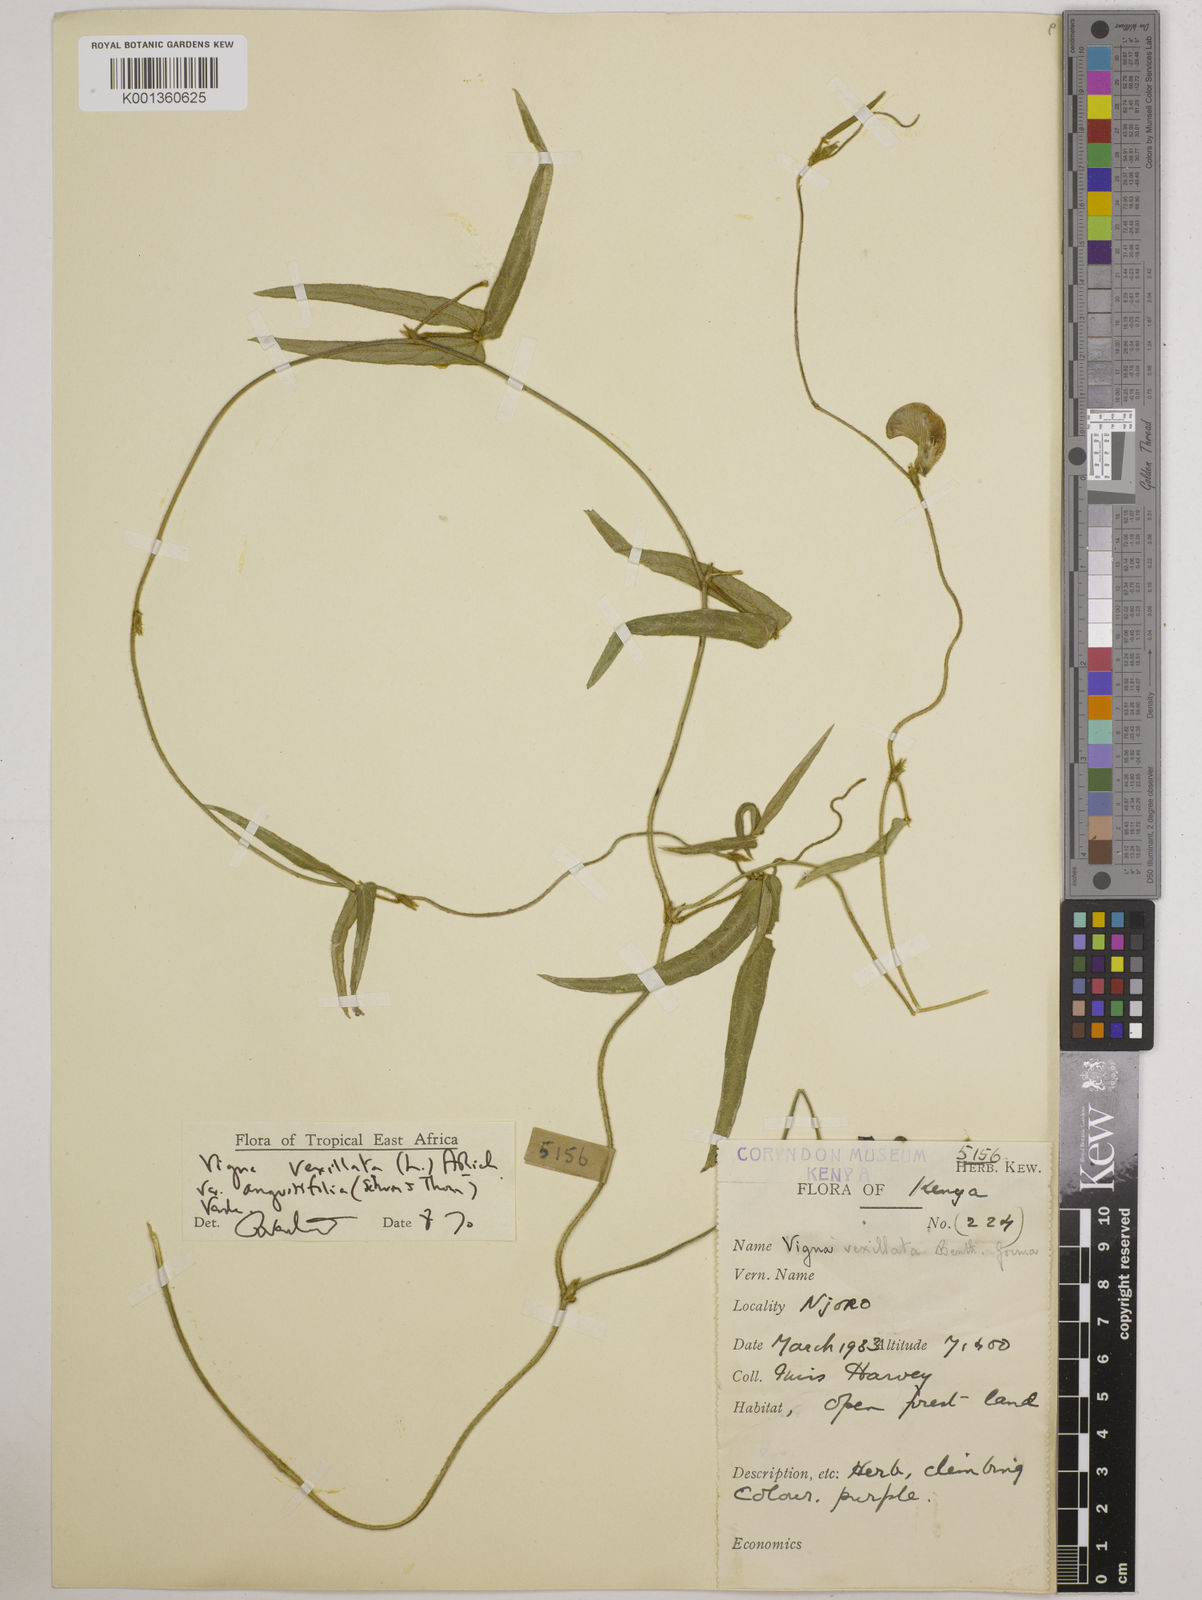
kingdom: Plantae
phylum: Tracheophyta
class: Magnoliopsida
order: Fabales
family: Fabaceae
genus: Vigna
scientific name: Vigna vexillata
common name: Zombi pea
